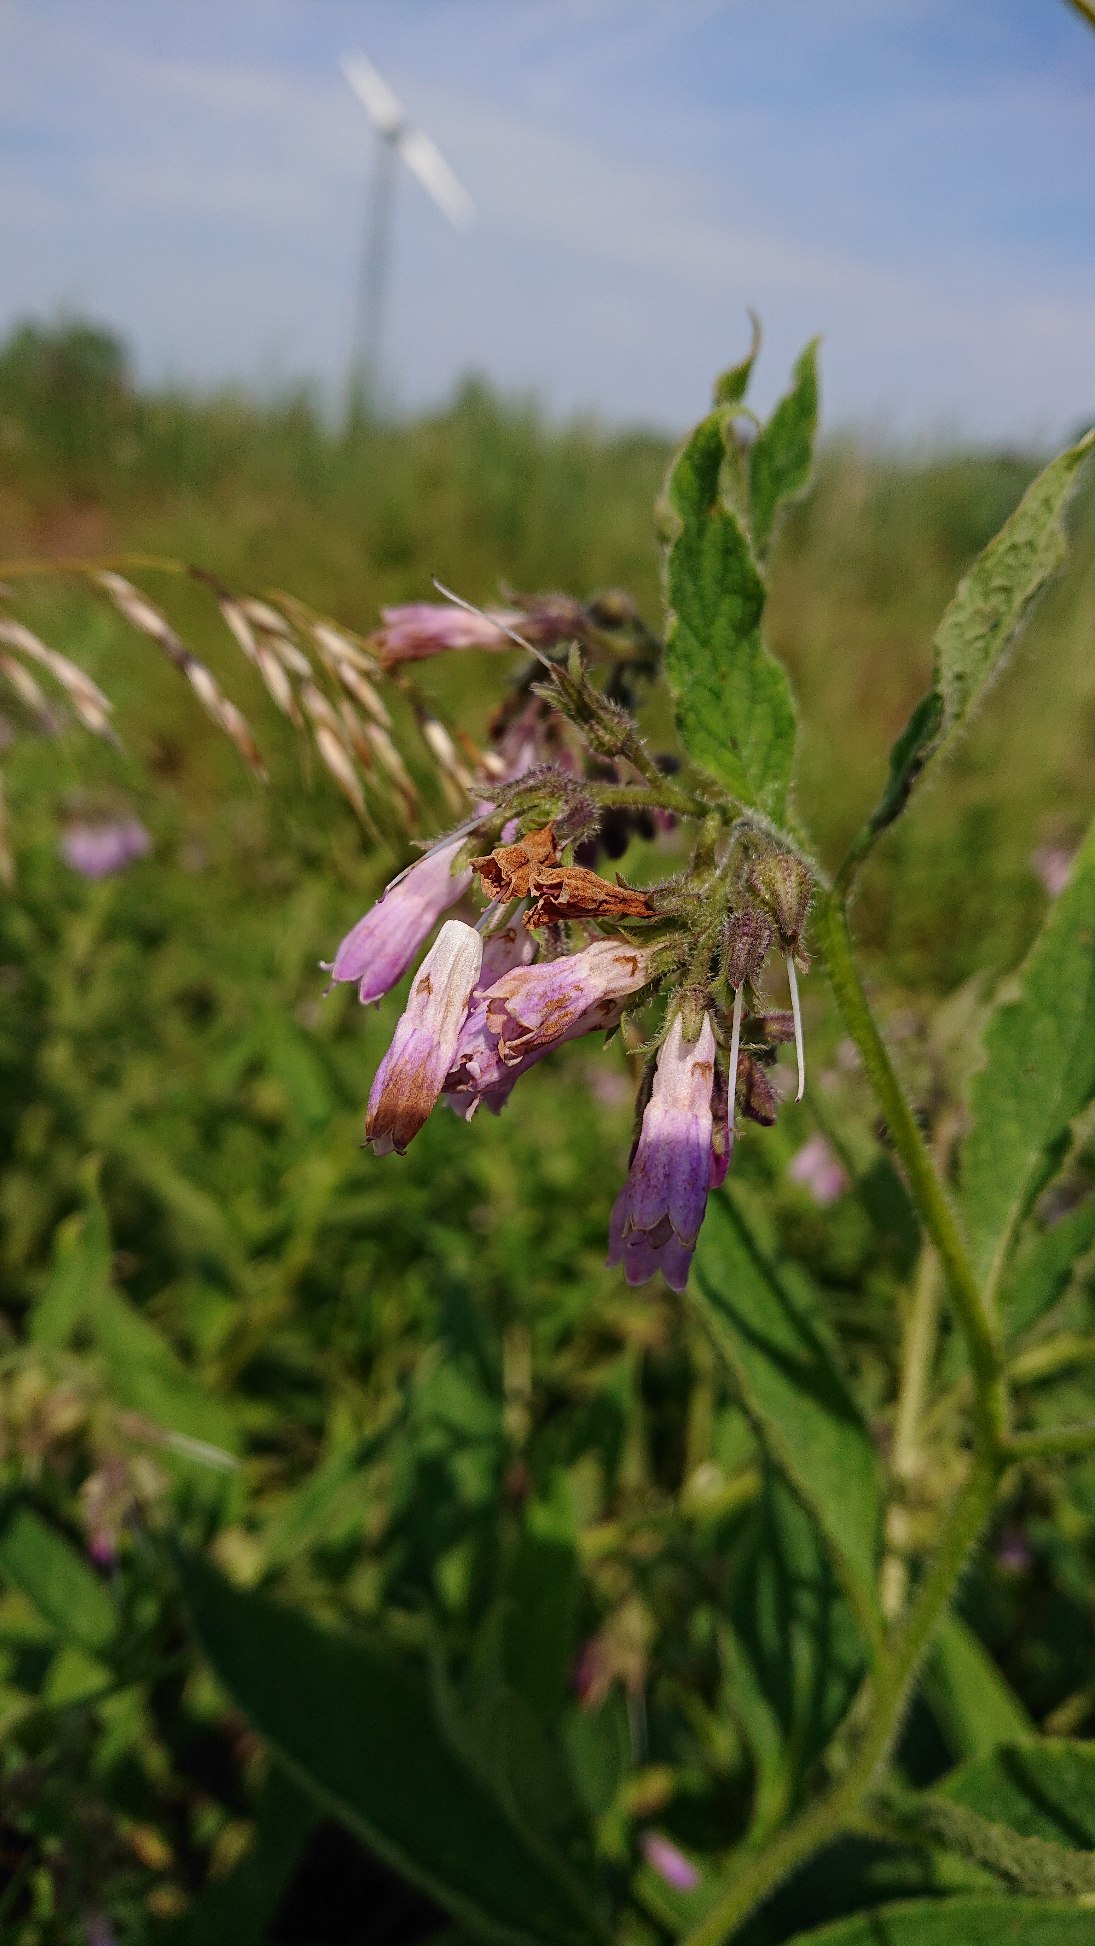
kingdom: Plantae
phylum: Tracheophyta
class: Magnoliopsida
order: Boraginales
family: Boraginaceae
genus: Symphytum
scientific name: Symphytum uplandicum
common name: Foder-kulsukker
